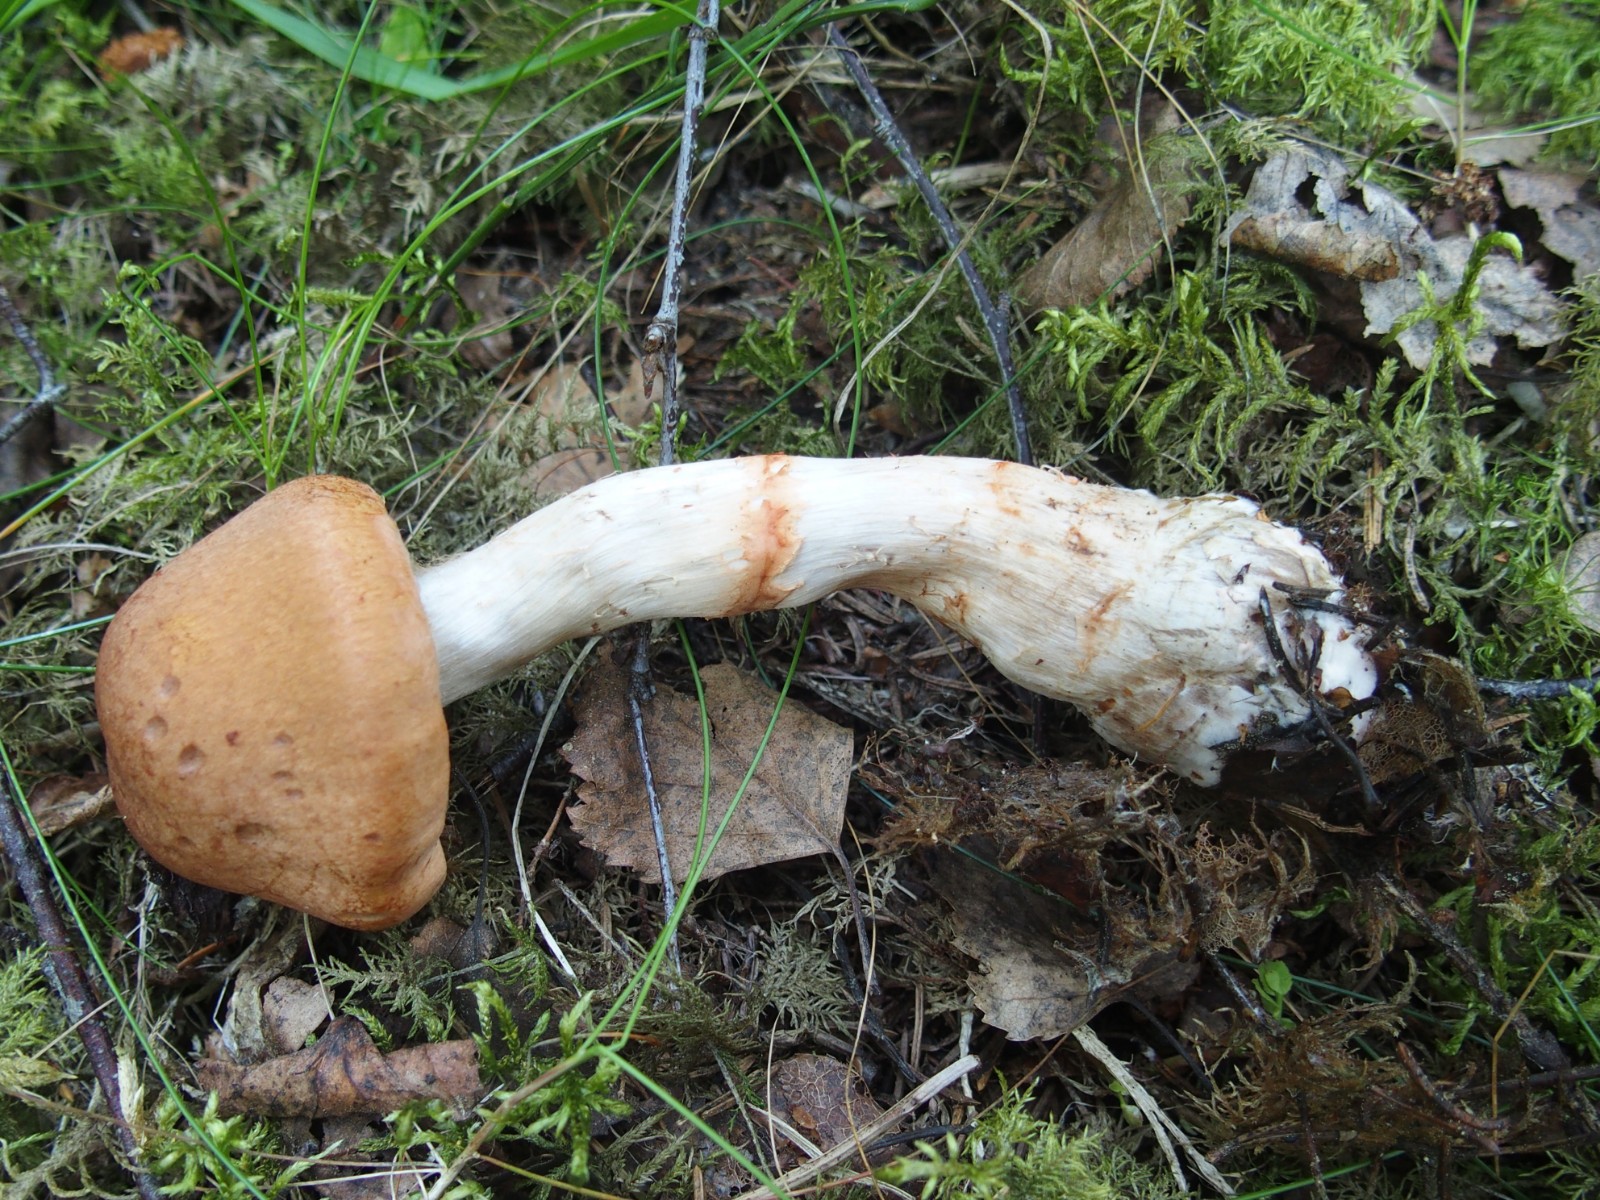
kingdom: Fungi
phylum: Basidiomycota
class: Agaricomycetes
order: Agaricales
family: Cortinariaceae
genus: Cortinarius
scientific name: Cortinarius armillatus
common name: cinnoberbæltet slørhat
